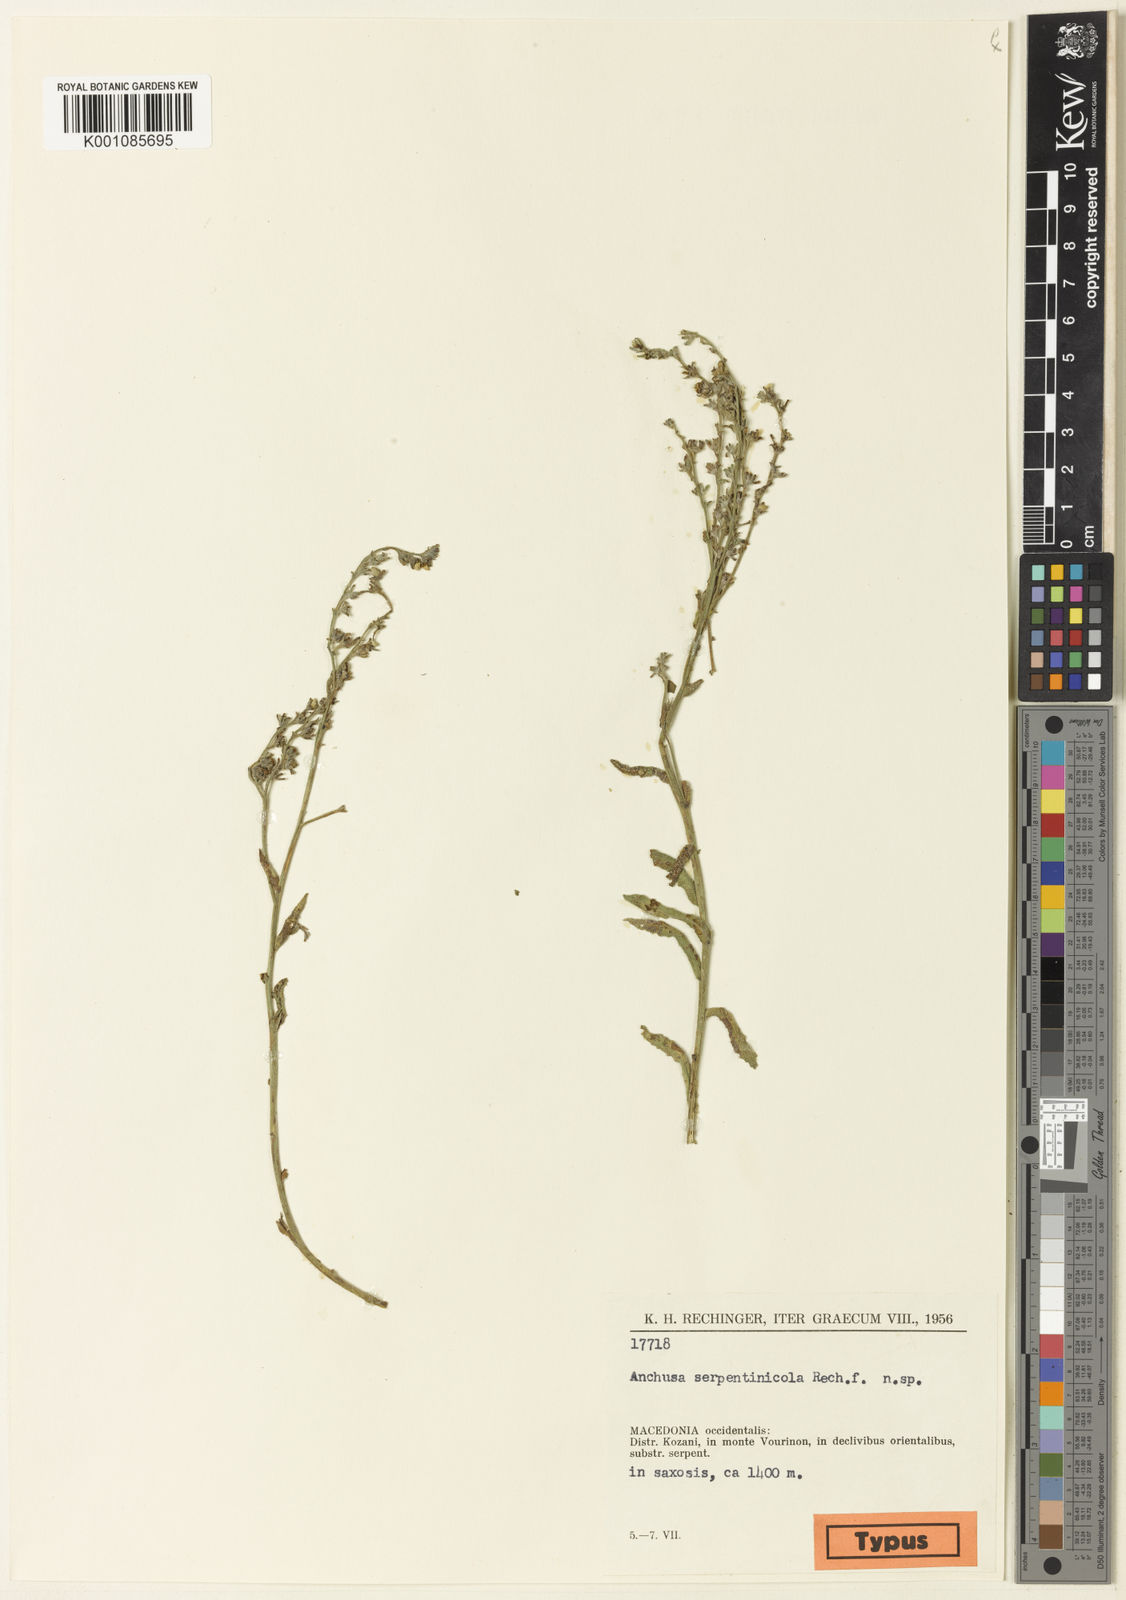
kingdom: Plantae
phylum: Tracheophyta
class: Magnoliopsida
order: Boraginales
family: Boraginaceae
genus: Cynoglottis
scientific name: Cynoglottis barrelieri
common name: False alkanet
